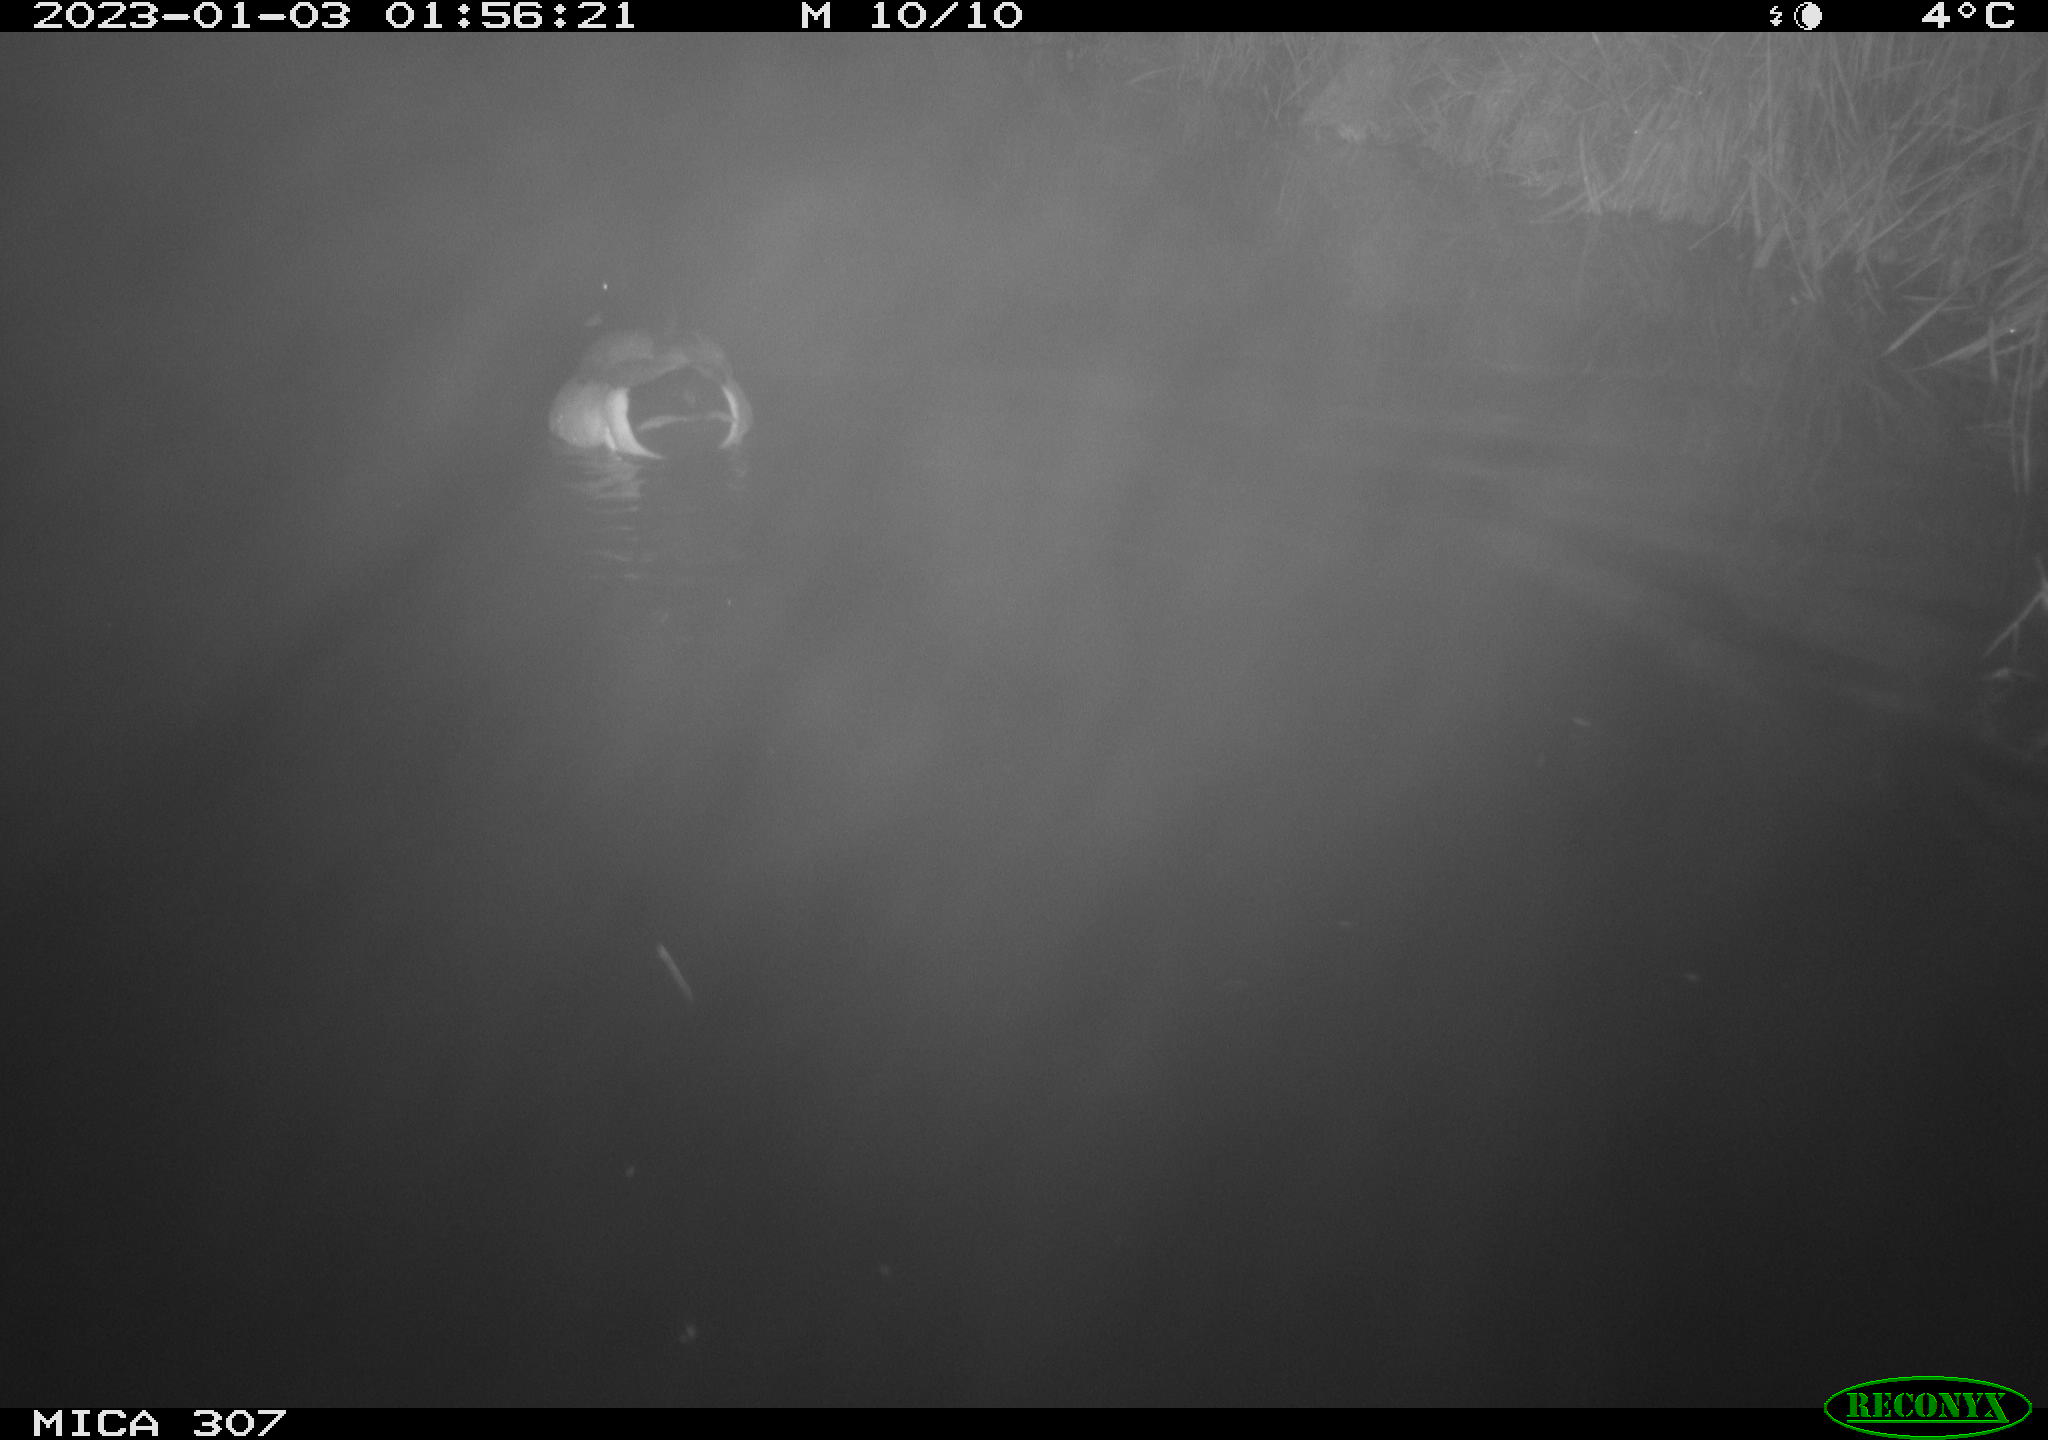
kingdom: Animalia
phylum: Chordata
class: Aves
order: Gruiformes
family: Rallidae
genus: Gallinula
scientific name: Gallinula chloropus
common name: Common moorhen
